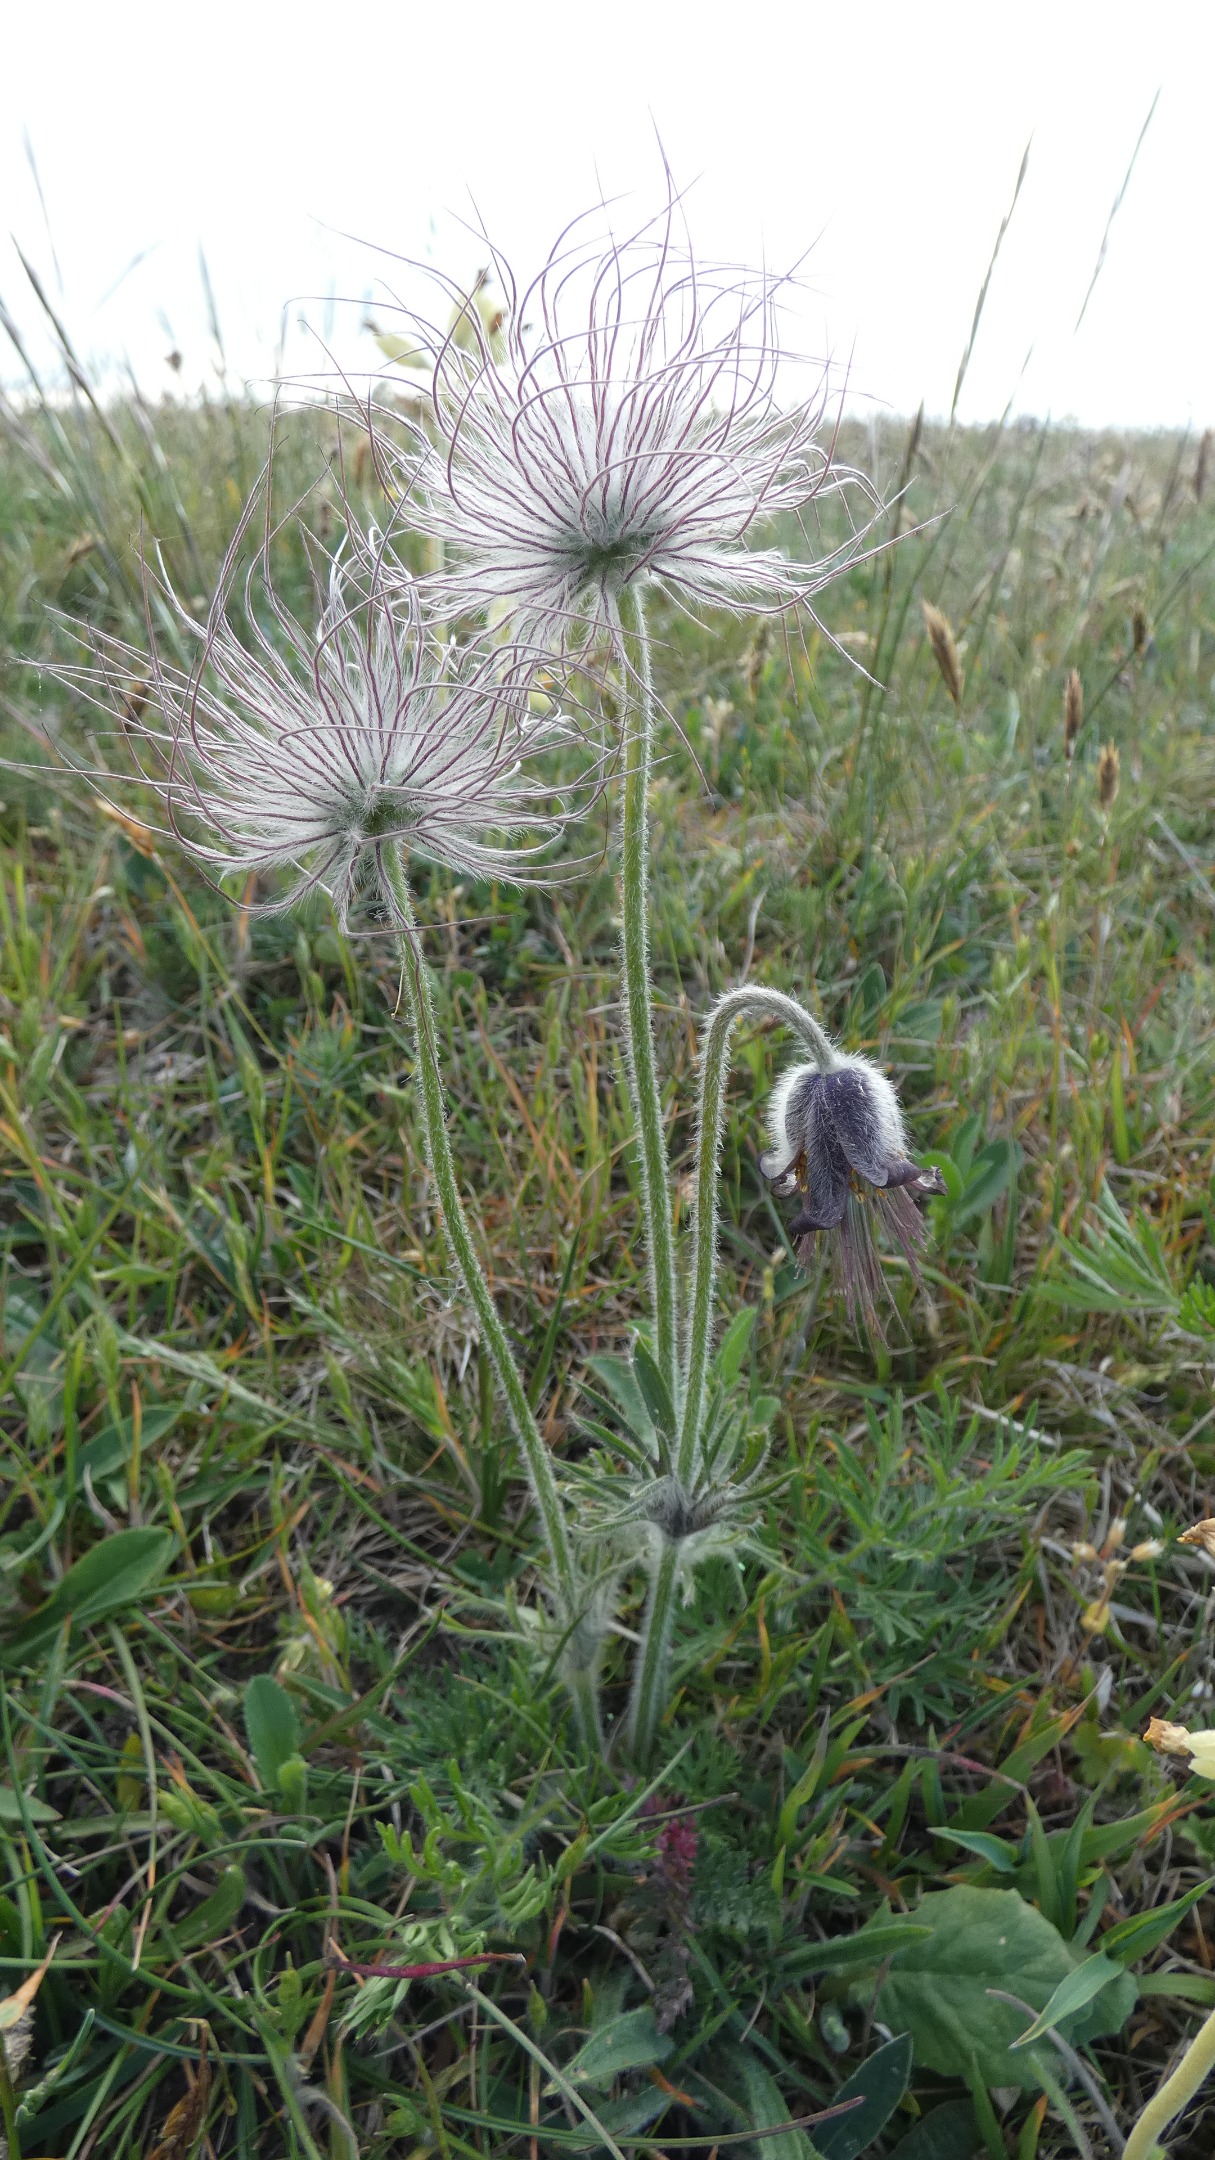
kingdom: Plantae
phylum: Tracheophyta
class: Magnoliopsida
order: Ranunculales
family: Ranunculaceae
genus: Pulsatilla
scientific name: Pulsatilla pratensis
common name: Nikkende kobjælde
